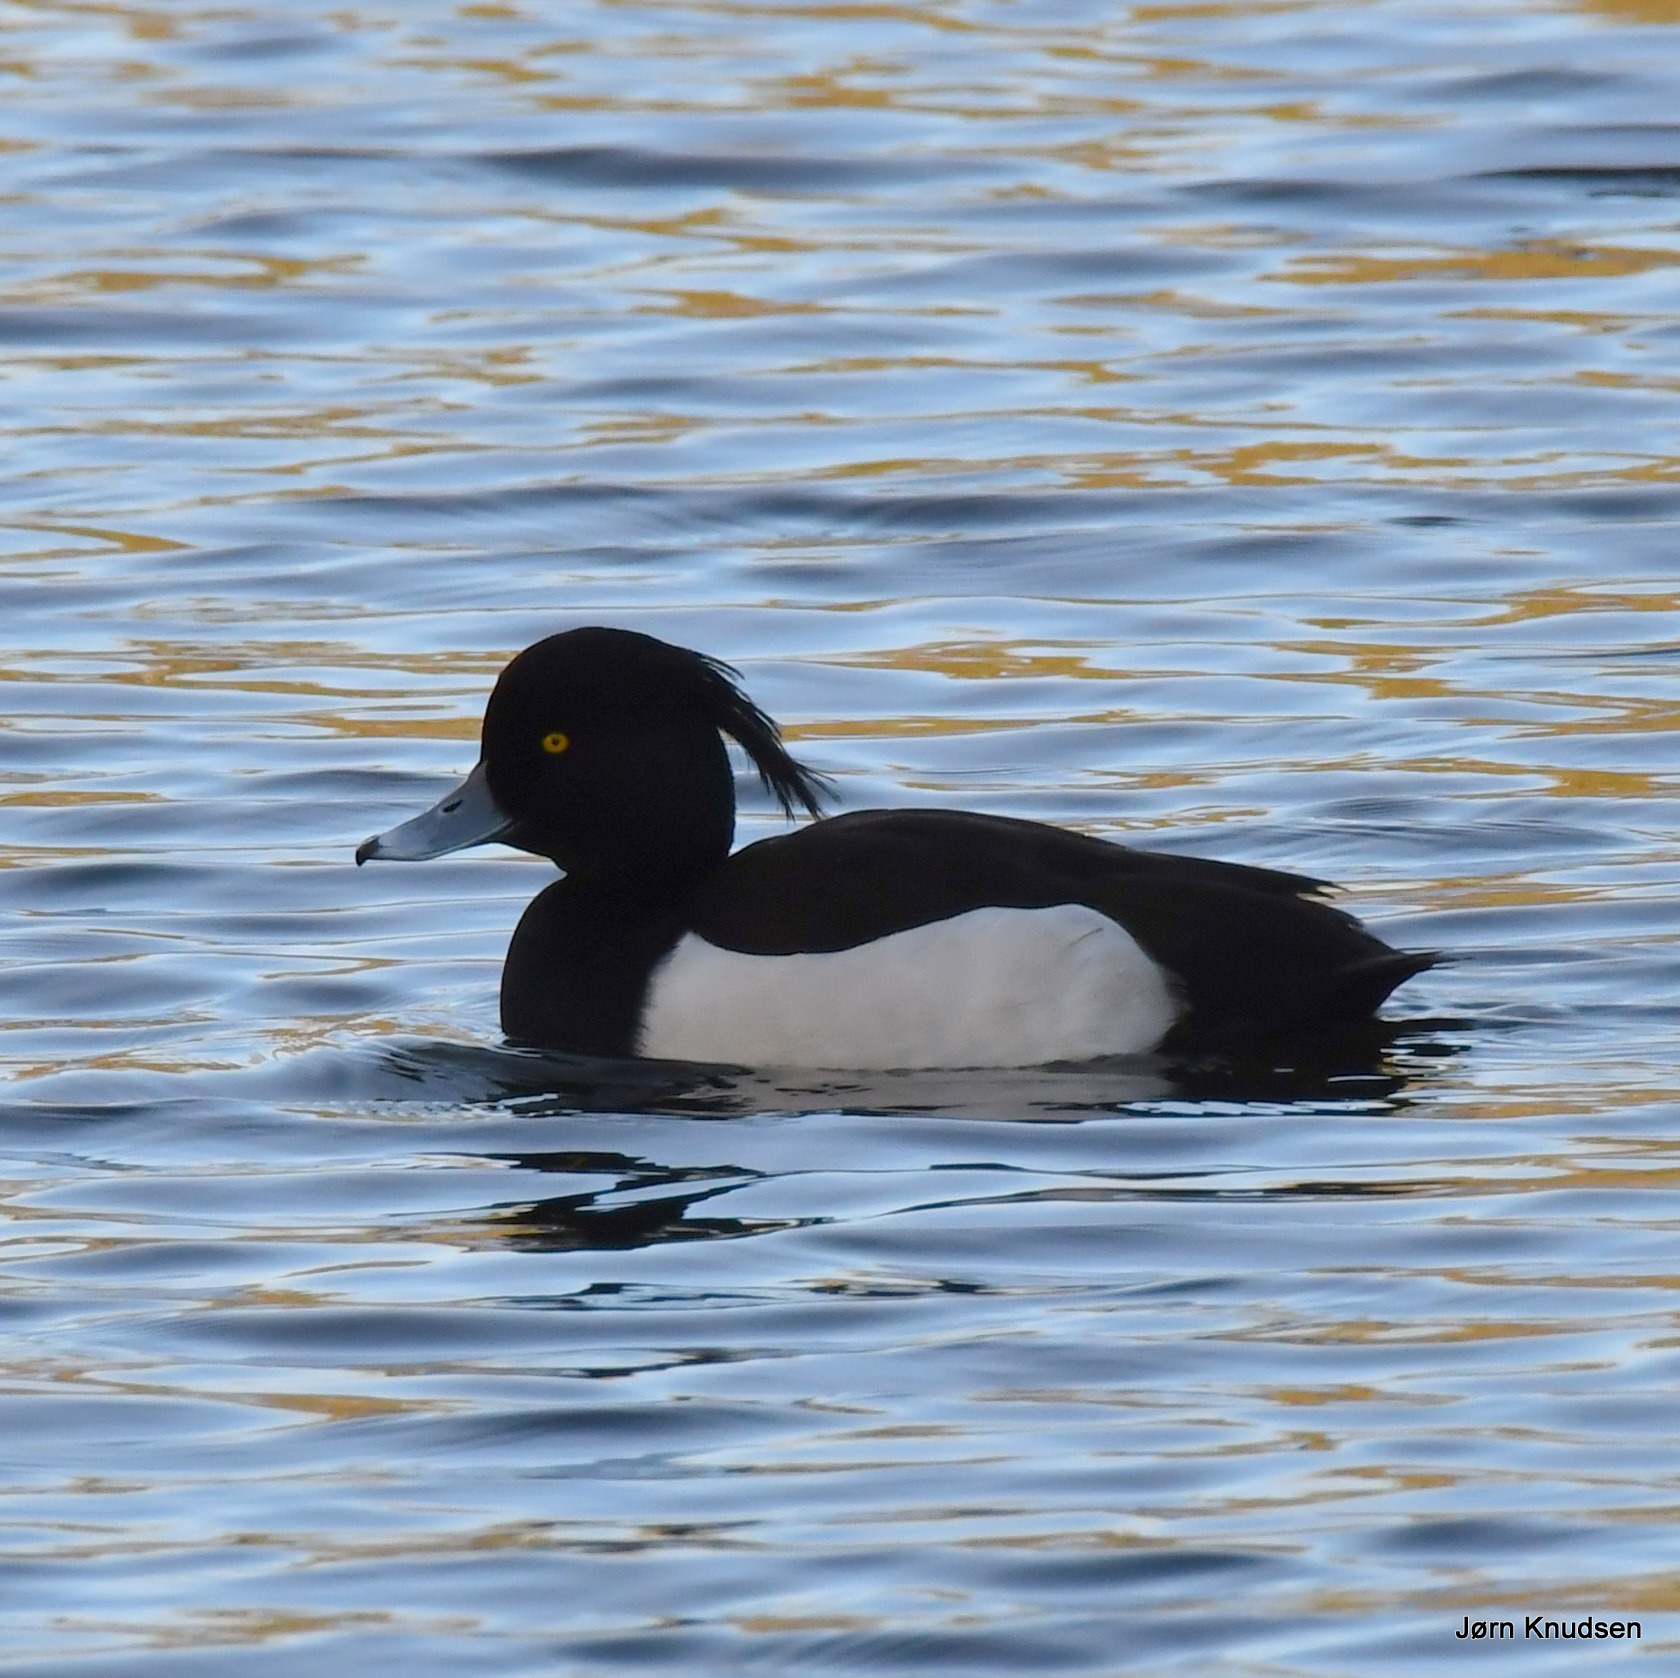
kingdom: Animalia
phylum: Chordata
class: Aves
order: Anseriformes
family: Anatidae
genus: Aythya
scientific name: Aythya fuligula
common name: Troldand
